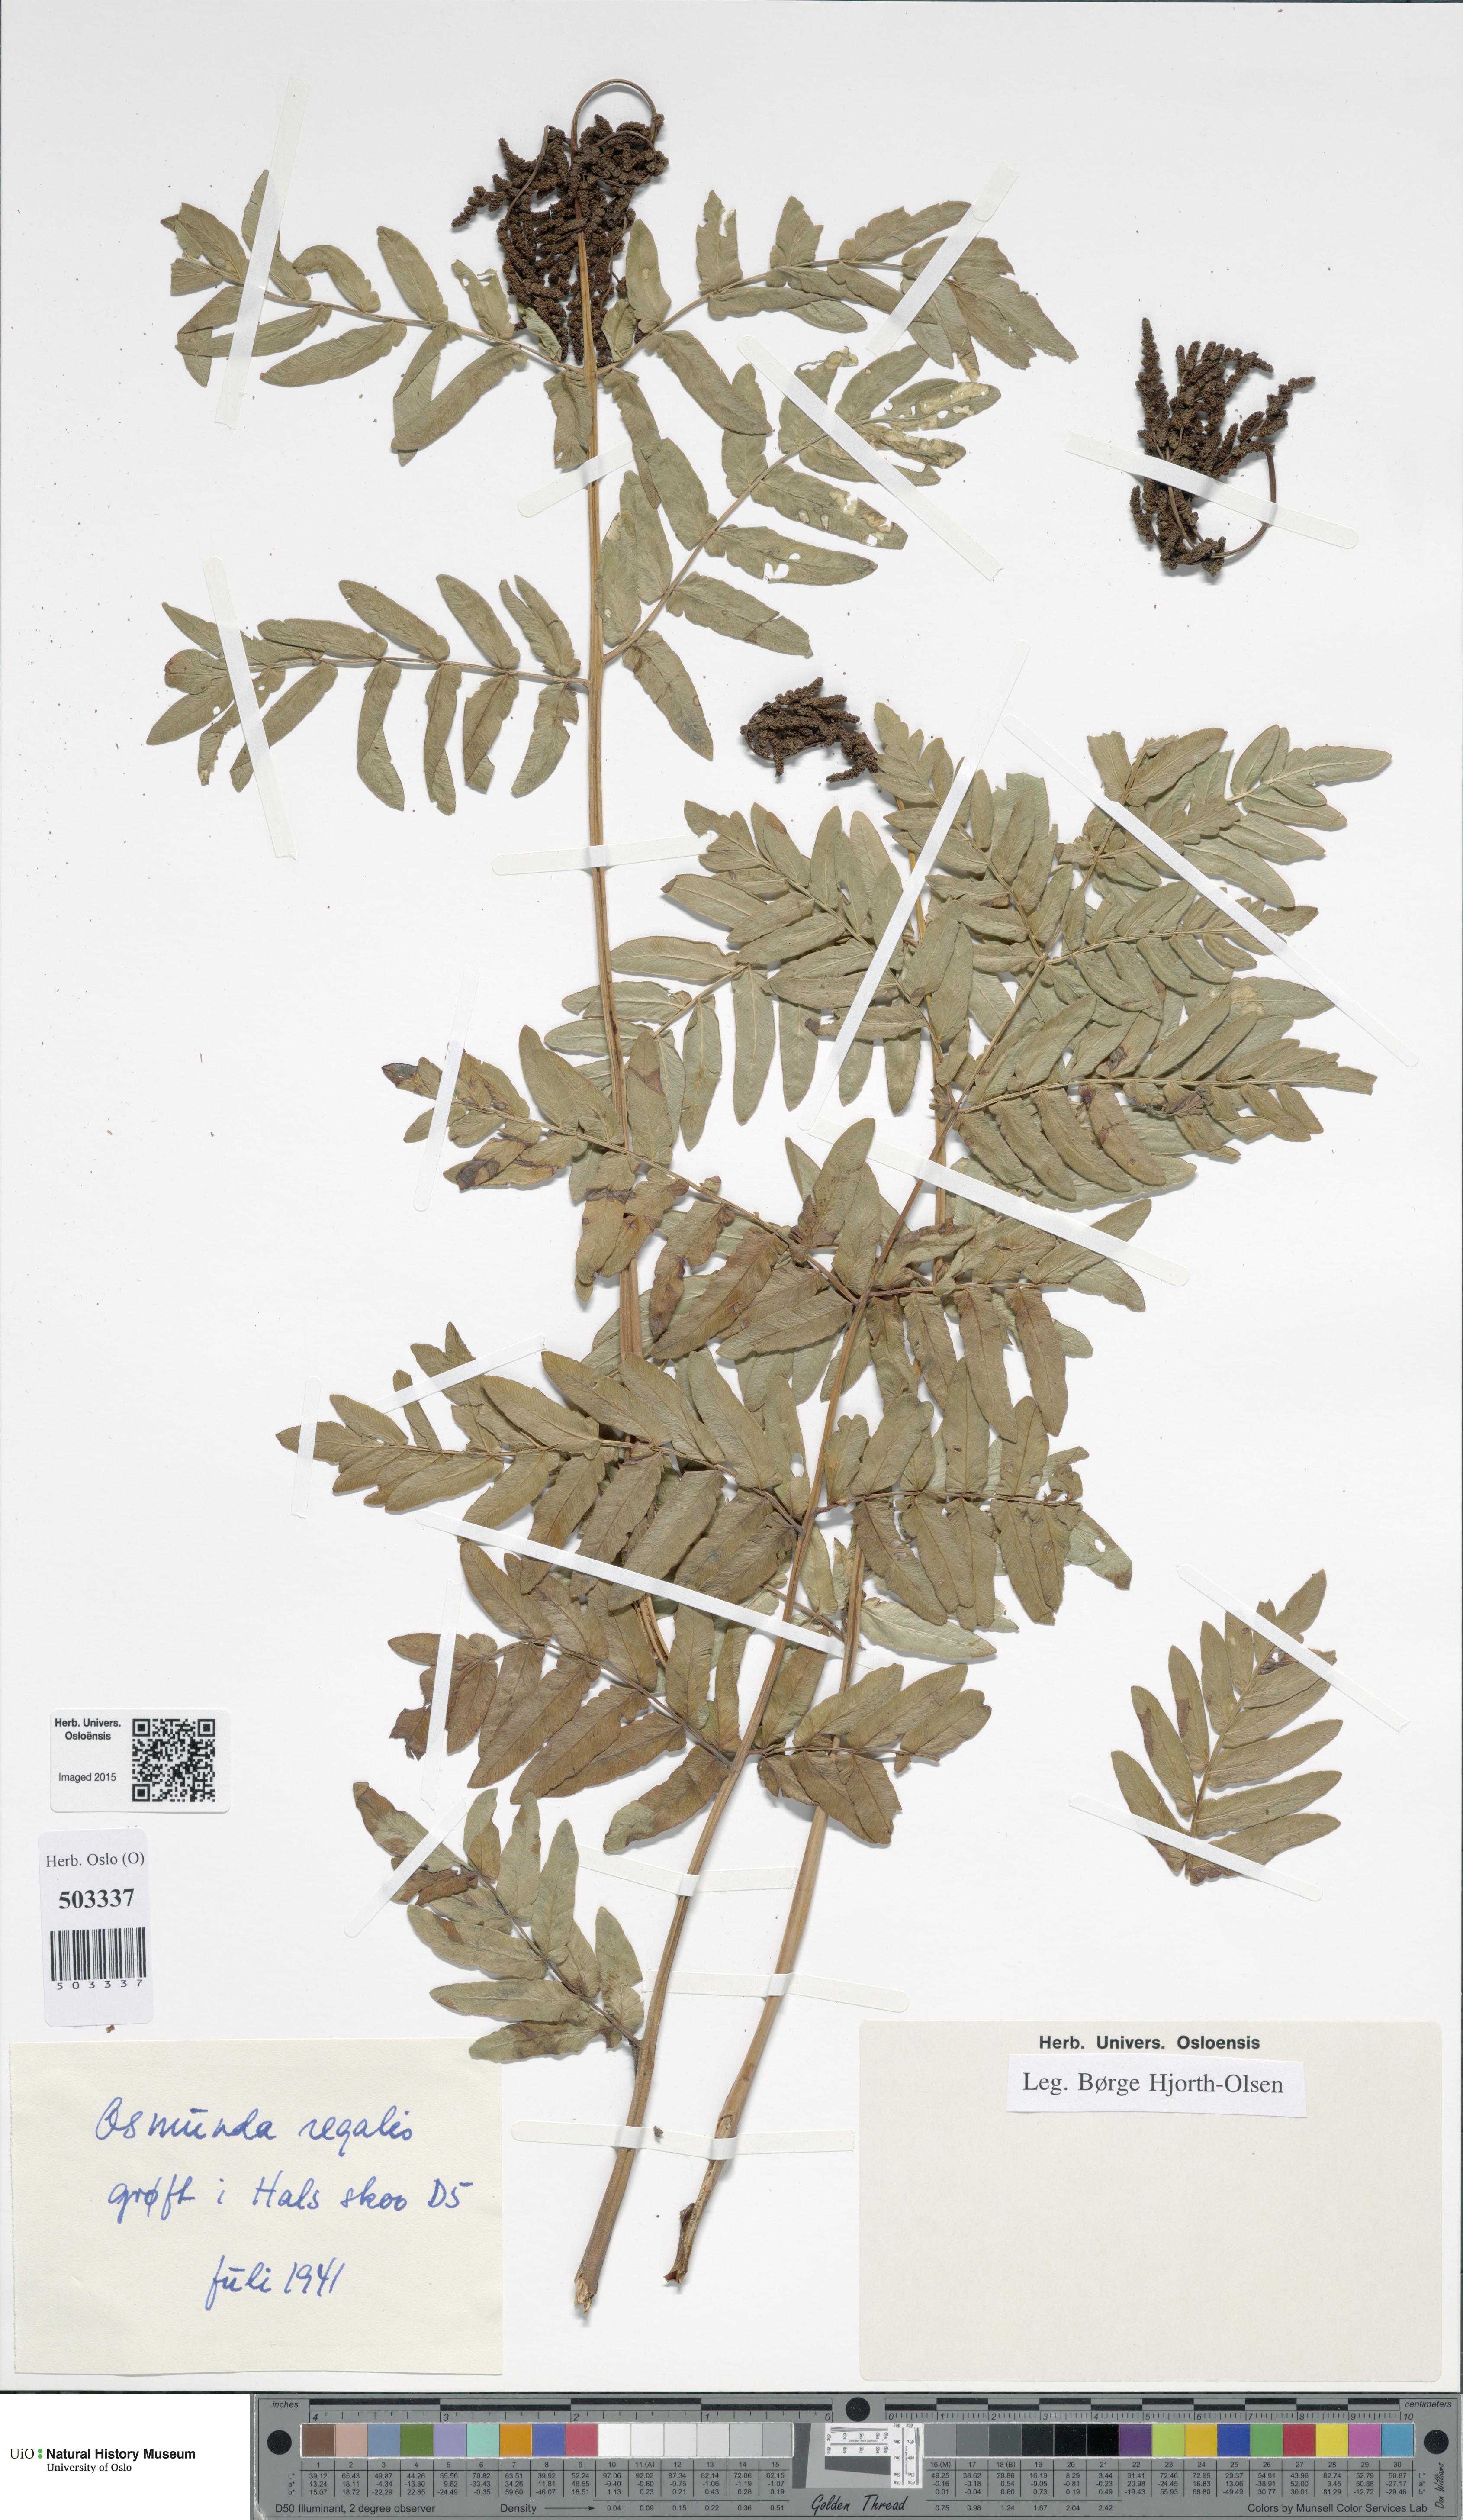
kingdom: Plantae
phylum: Tracheophyta
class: Polypodiopsida
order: Osmundales
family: Osmundaceae
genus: Osmunda
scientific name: Osmunda regalis
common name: Royal fern
